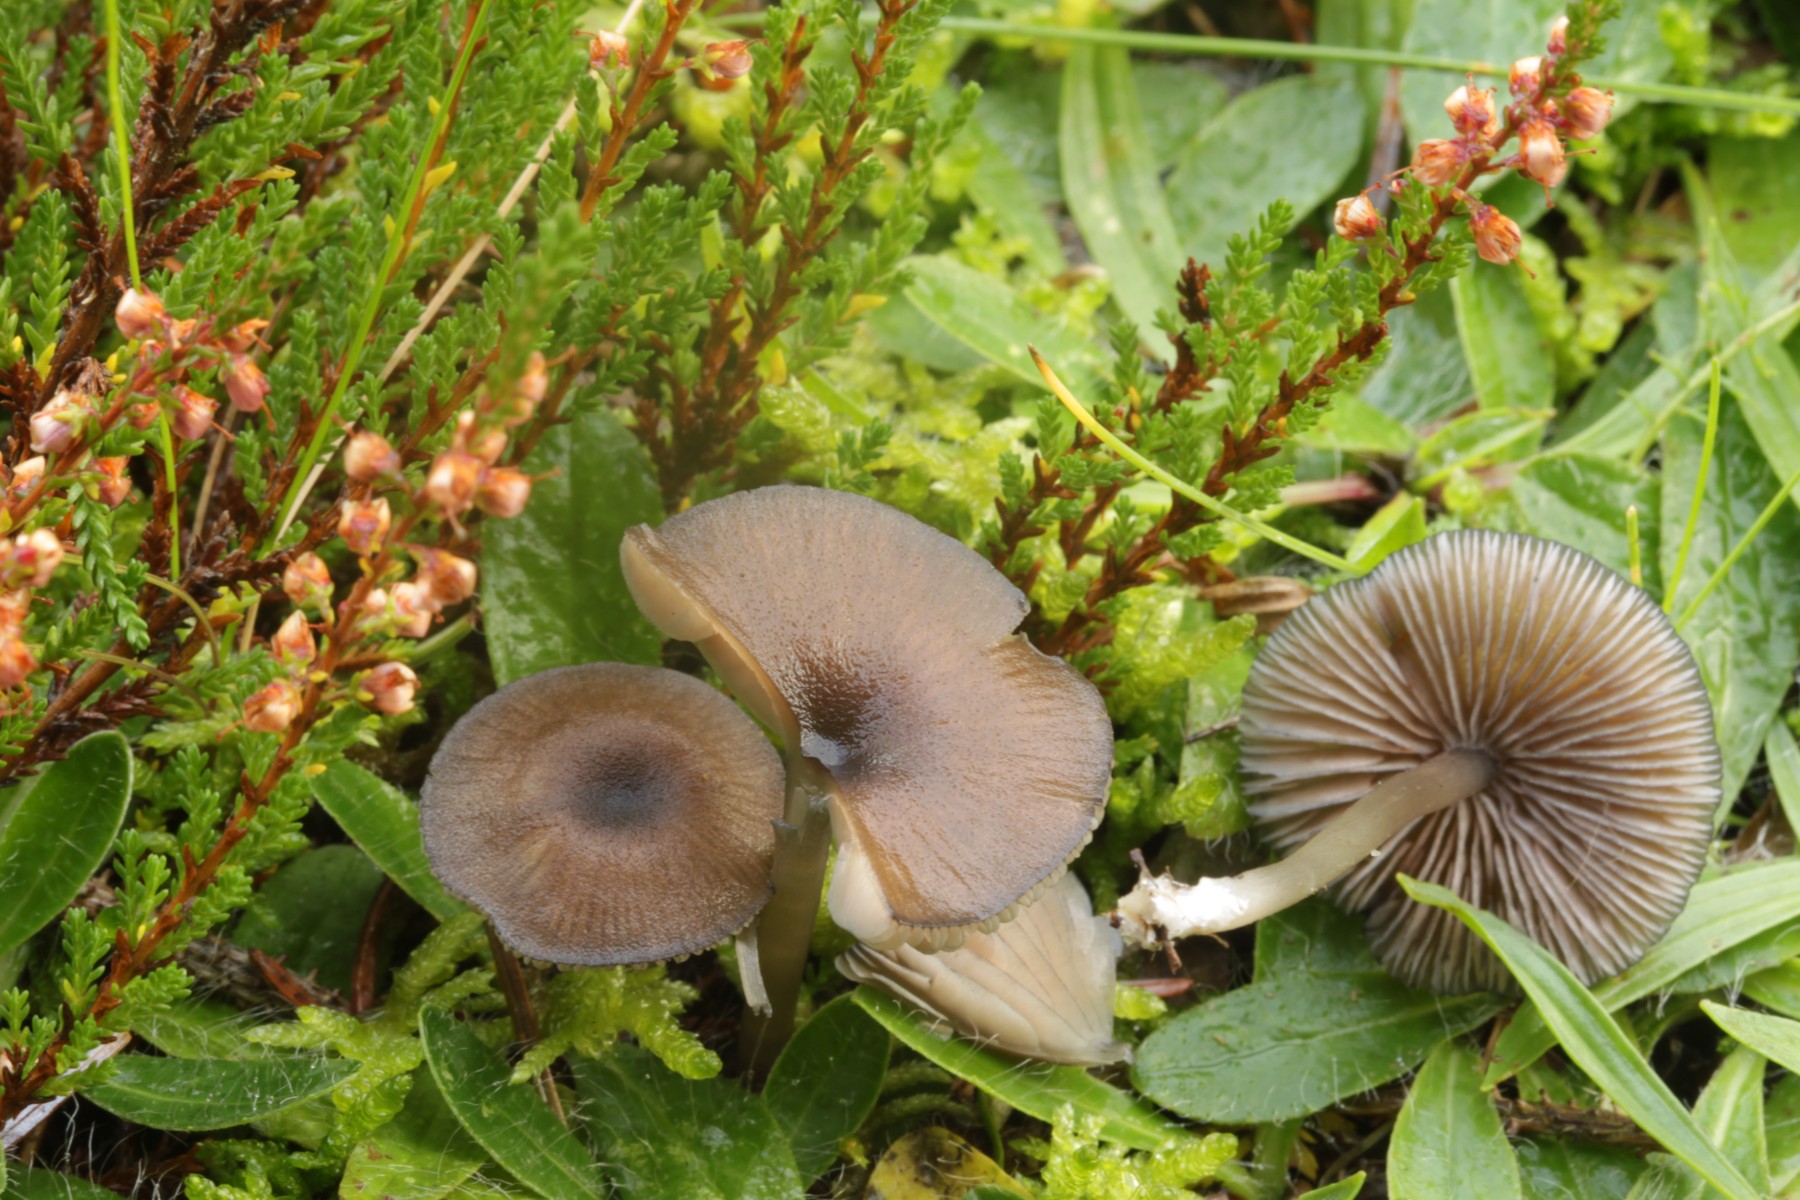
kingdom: Fungi
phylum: Basidiomycota
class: Agaricomycetes
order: Agaricales
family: Entolomataceae
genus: Entoloma
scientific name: Entoloma caesiocinctum
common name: Blue-girdled pinkgill
